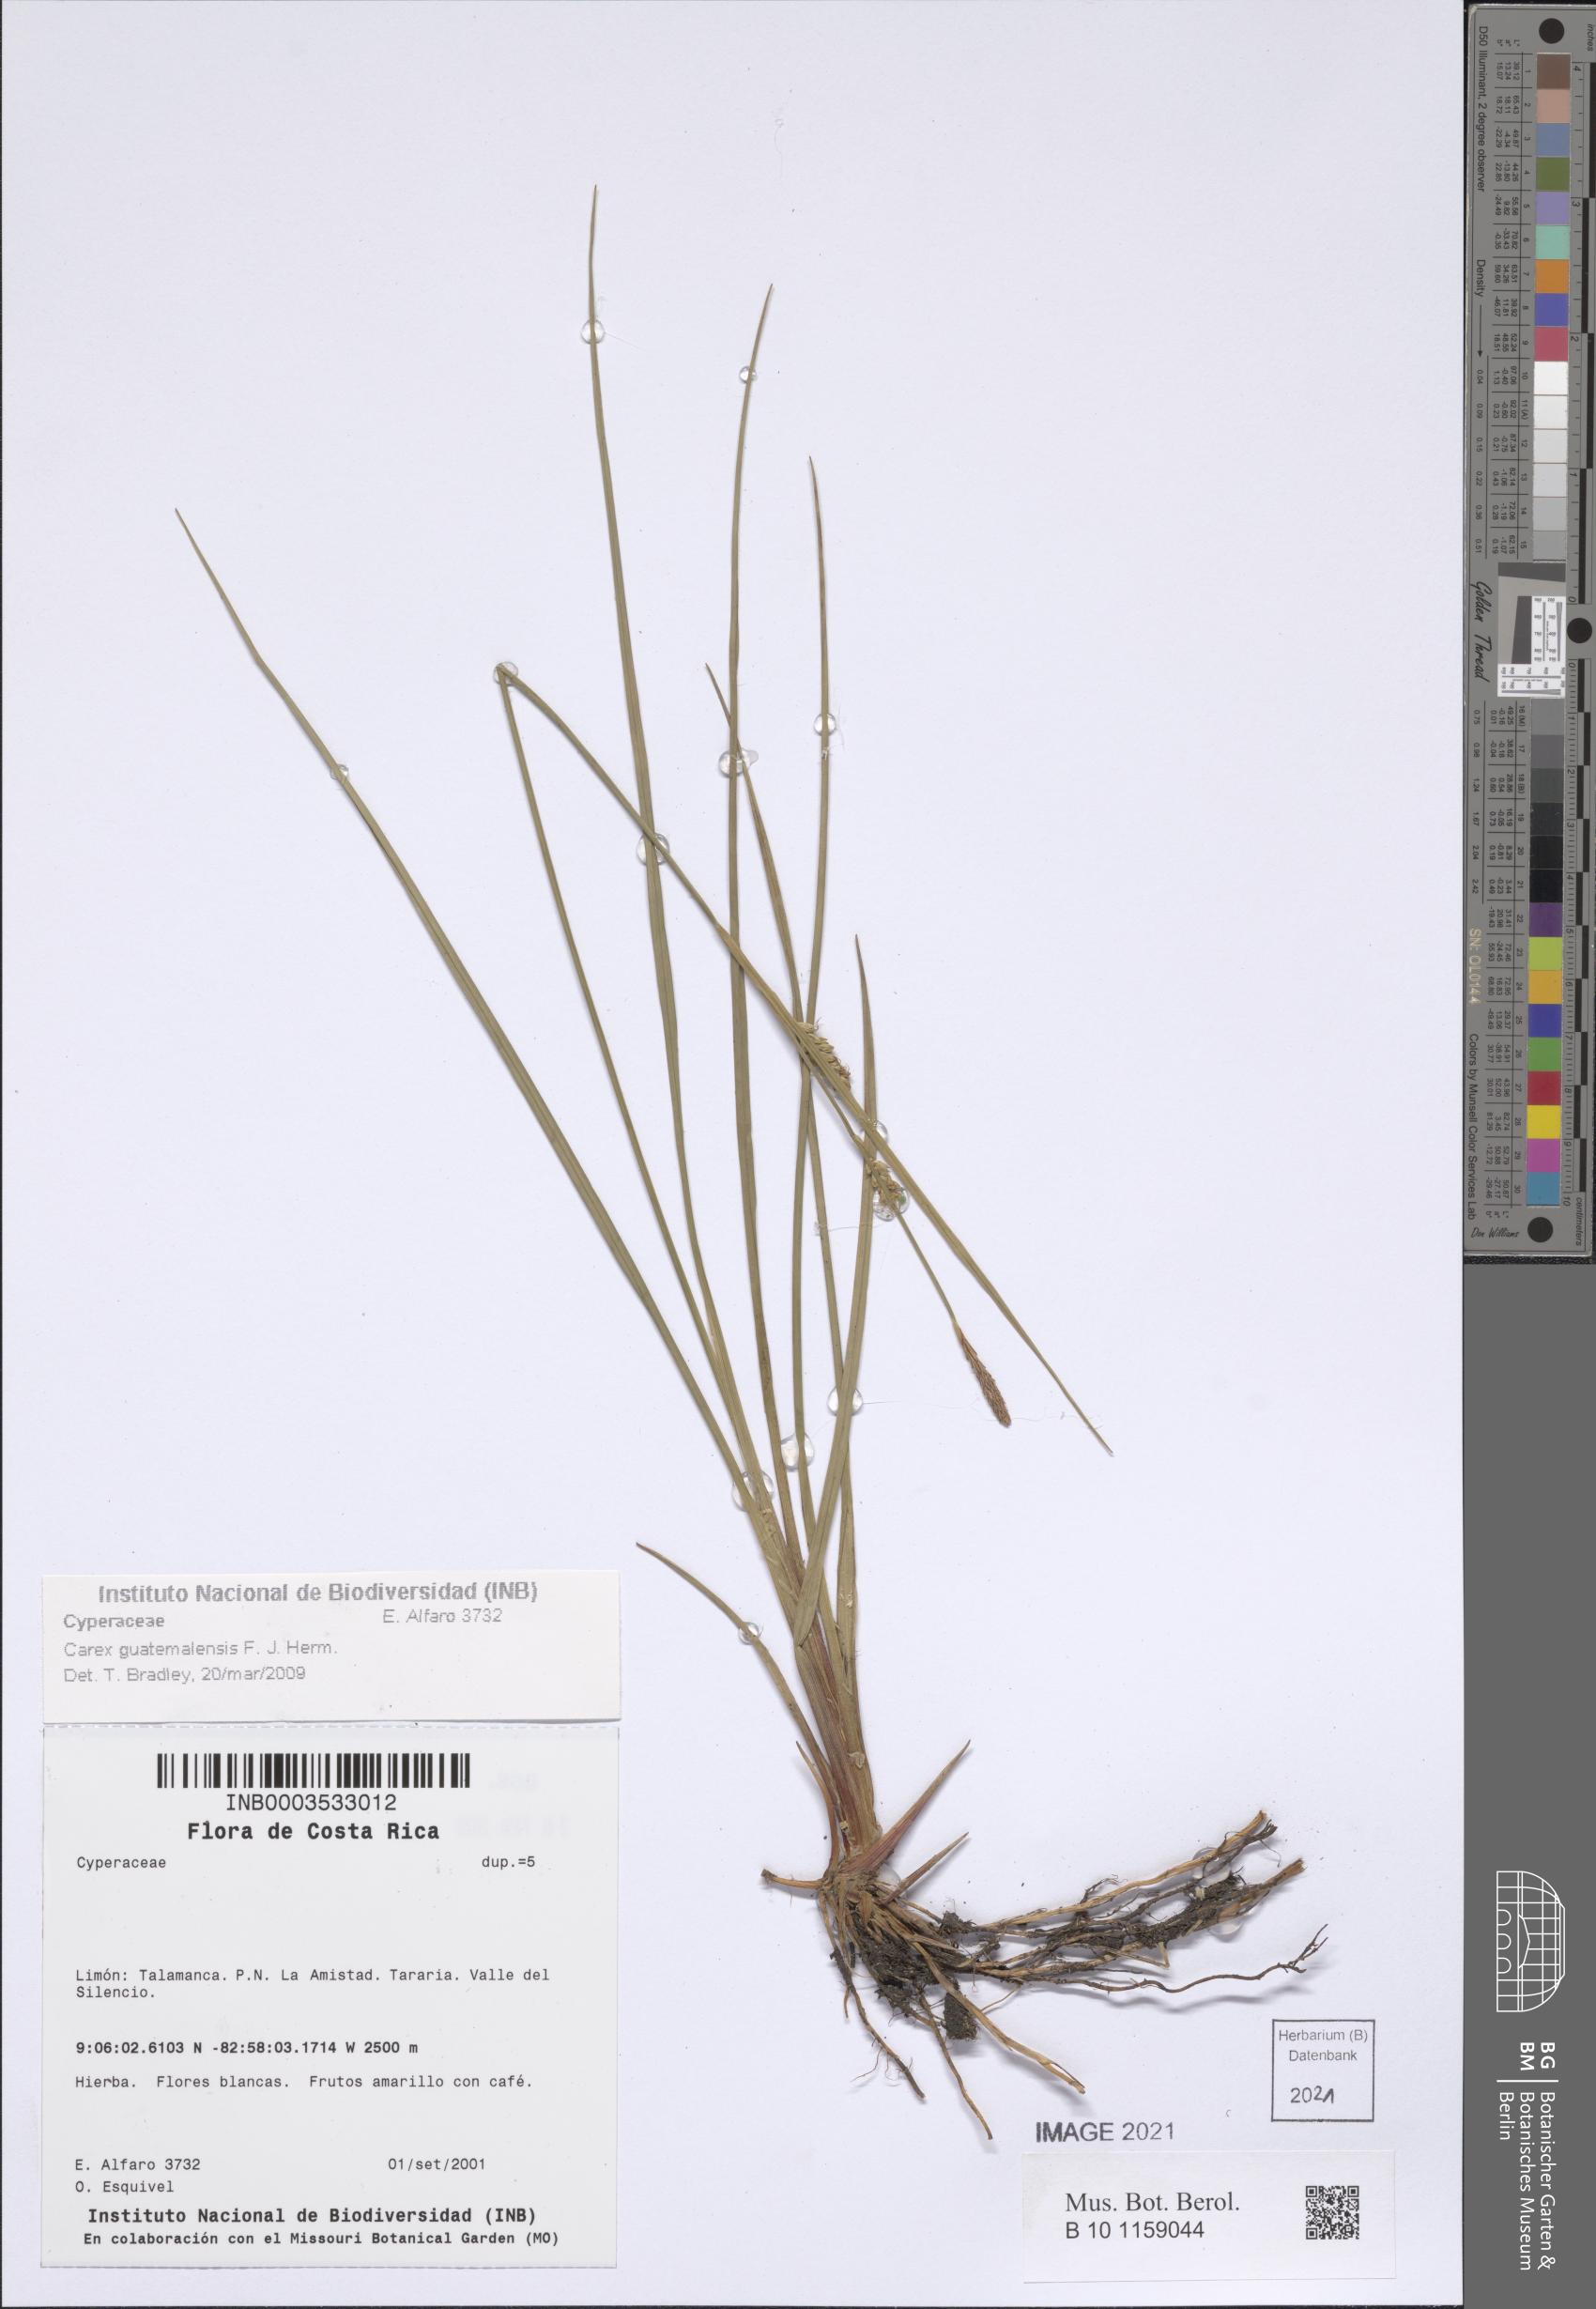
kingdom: Plantae
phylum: Tracheophyta
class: Liliopsida
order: Poales
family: Cyperaceae
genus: Carex
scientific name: Carex guatemalensis
